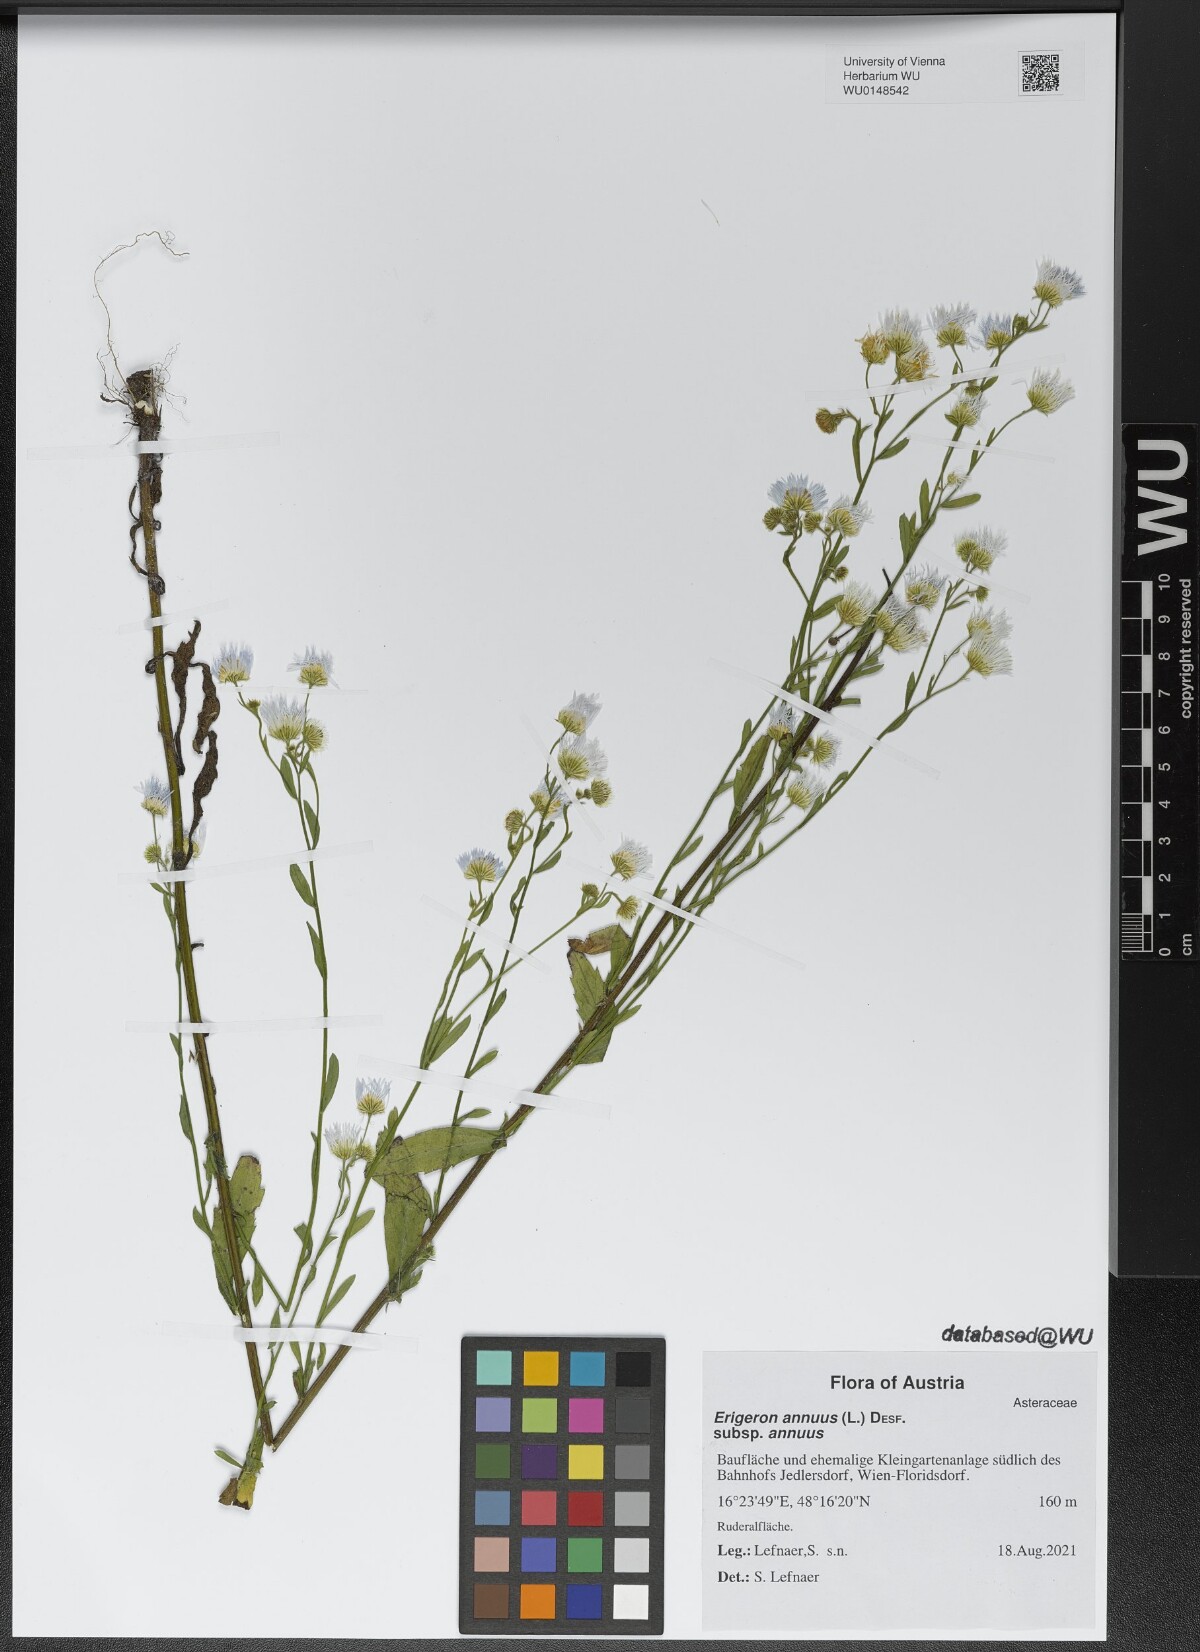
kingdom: Plantae
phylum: Tracheophyta
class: Magnoliopsida
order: Asterales
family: Asteraceae
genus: Erigeron
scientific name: Erigeron annuus
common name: Tall fleabane
